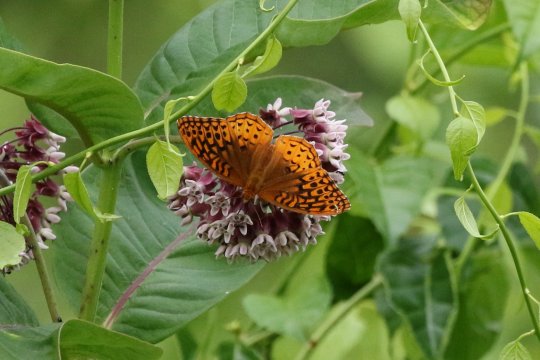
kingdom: Animalia
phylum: Arthropoda
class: Insecta
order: Lepidoptera
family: Nymphalidae
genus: Speyeria
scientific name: Speyeria cybele
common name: Great Spangled Fritillary
